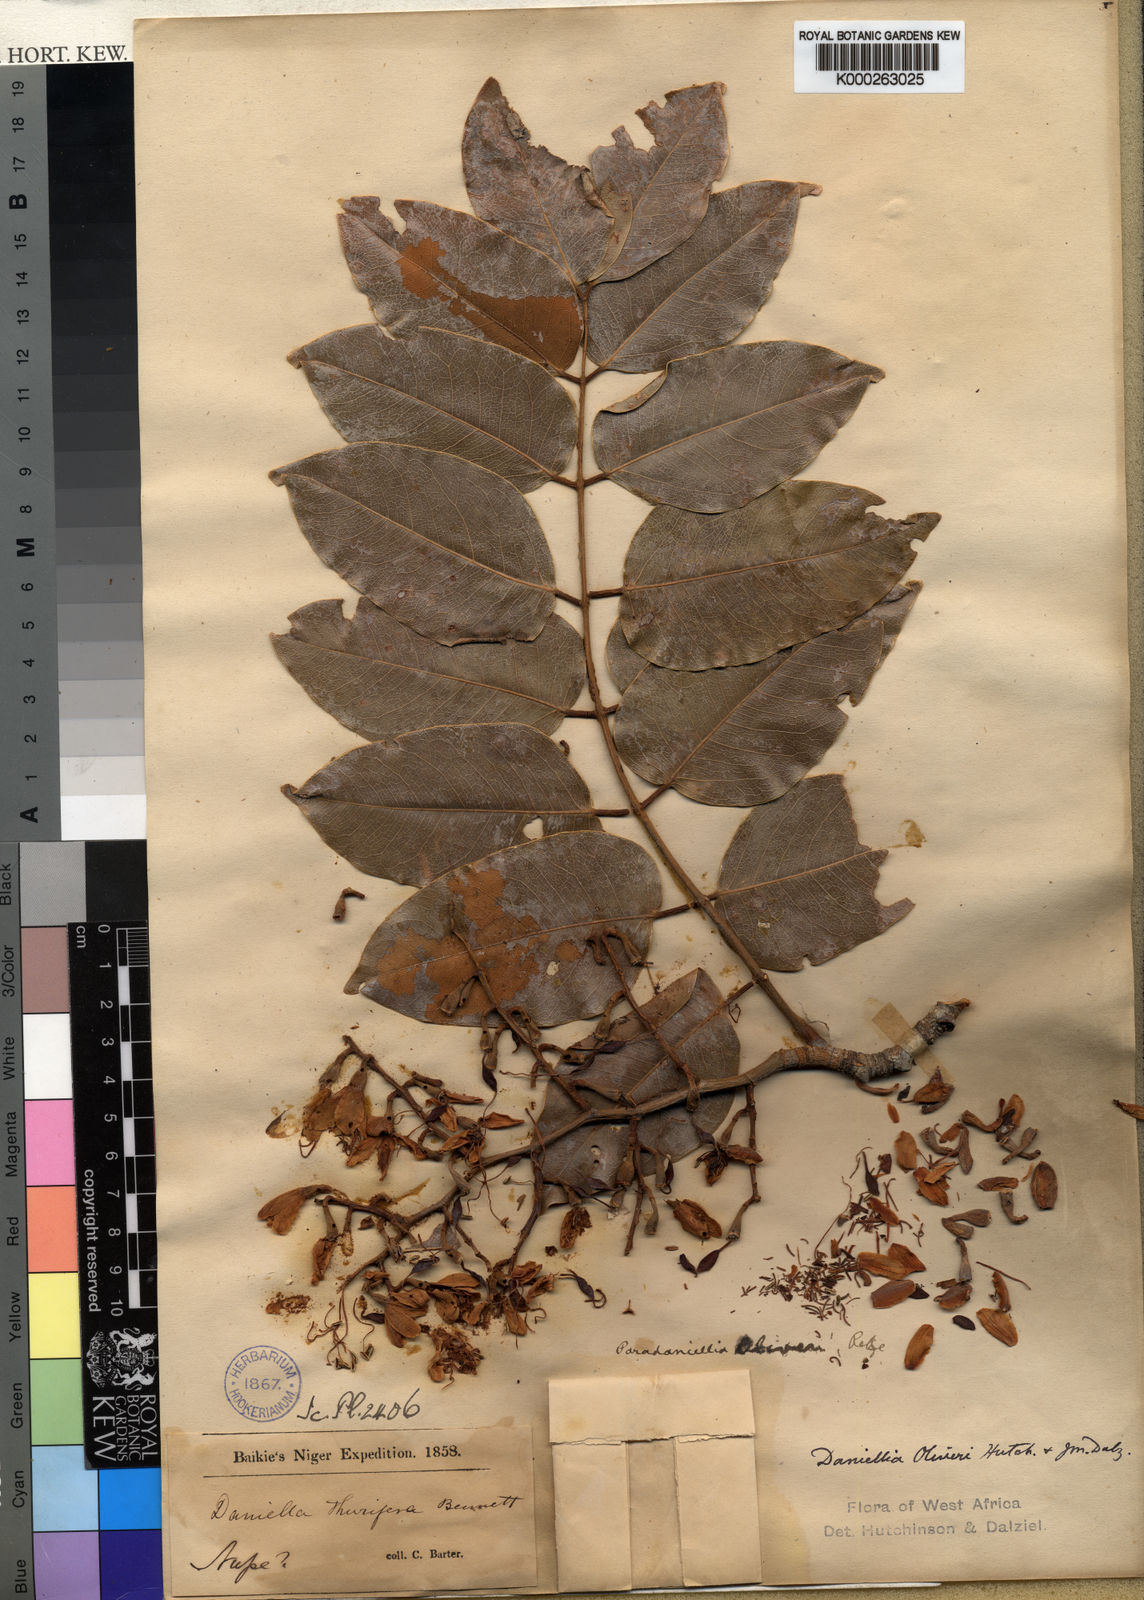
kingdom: Plantae
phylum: Tracheophyta
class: Magnoliopsida
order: Fabales
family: Fabaceae
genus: Daniellia
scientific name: Daniellia
